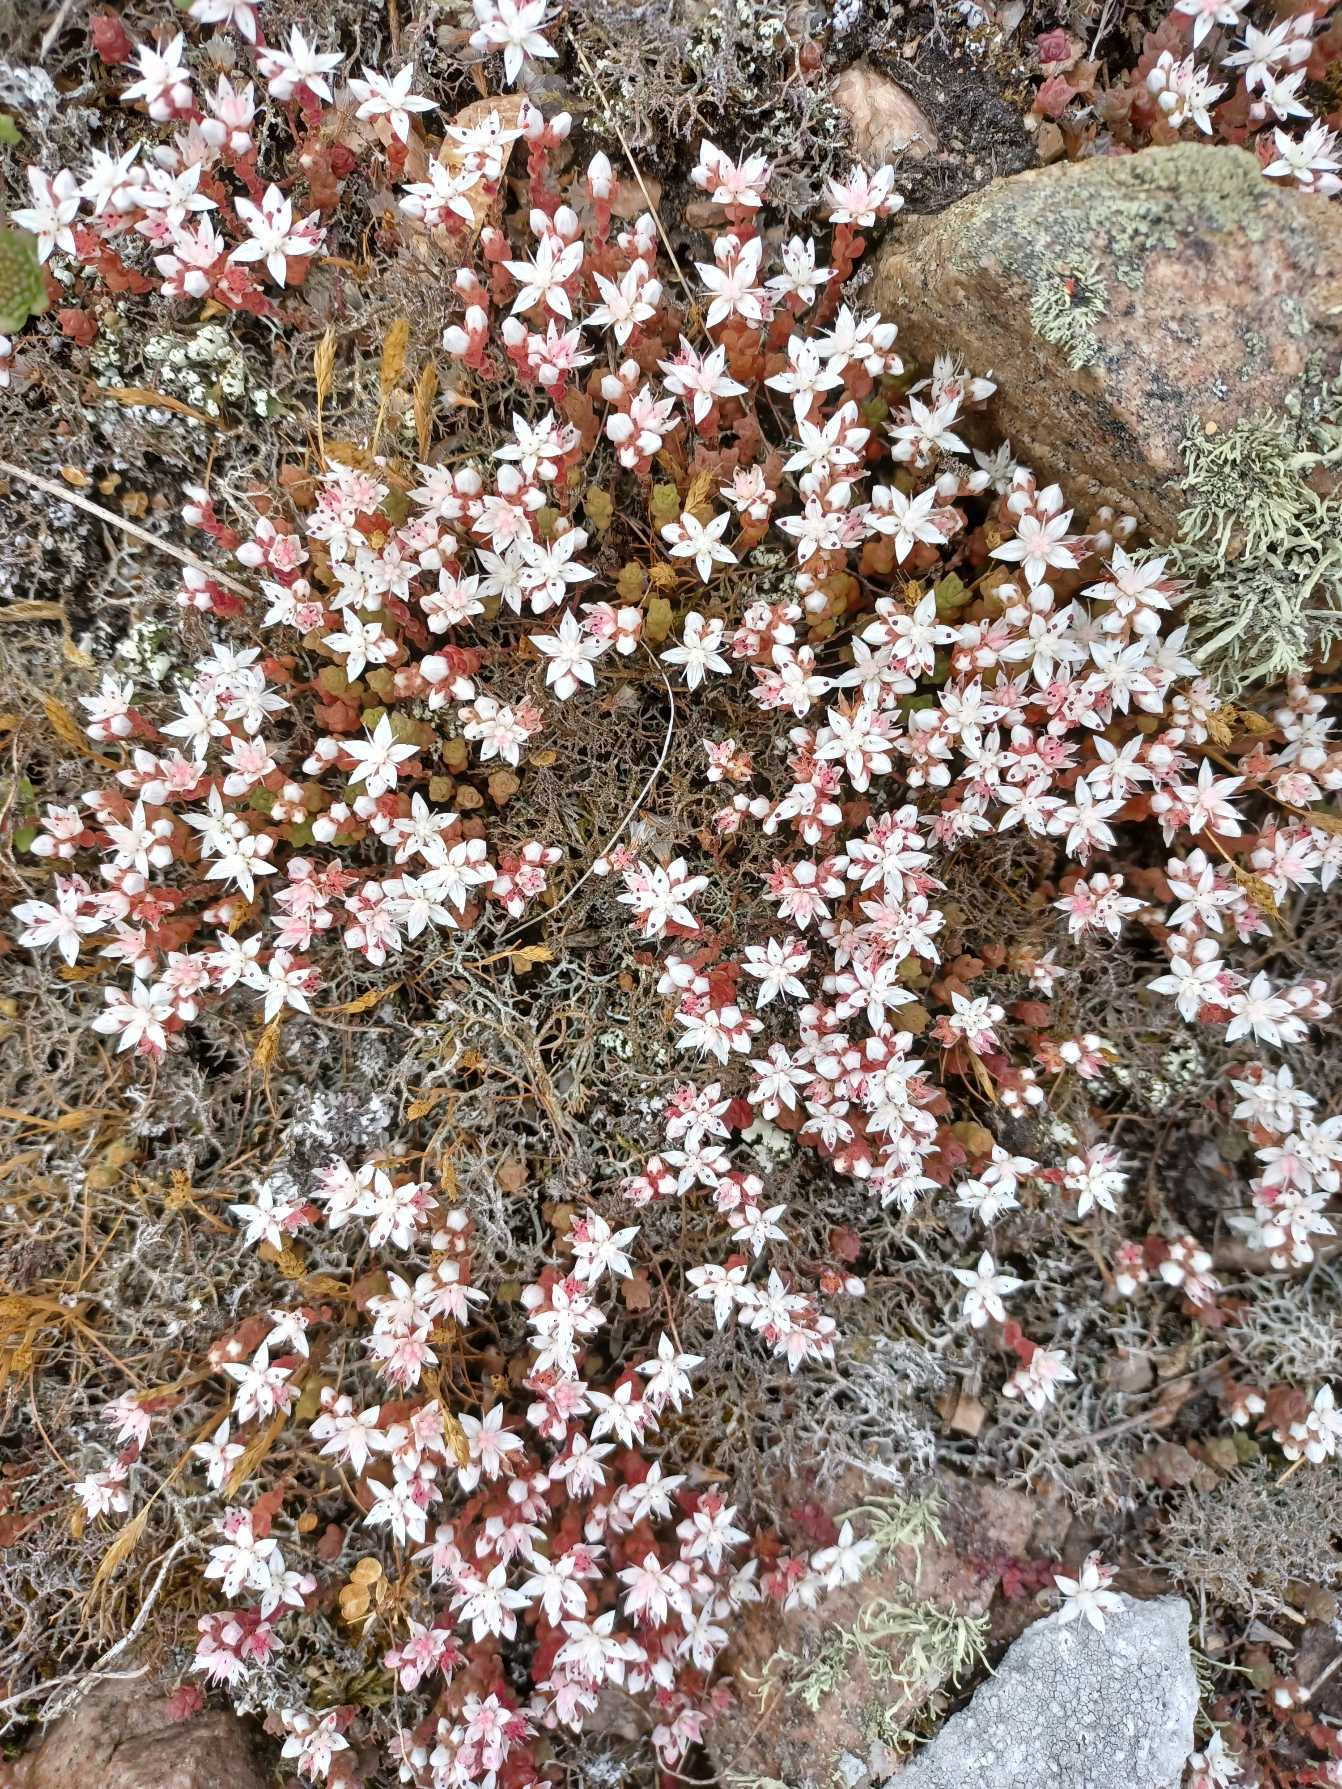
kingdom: Plantae
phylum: Tracheophyta
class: Magnoliopsida
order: Saxifragales
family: Crassulaceae
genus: Sedum
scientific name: Sedum anglicum
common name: Engelsk stenurt
